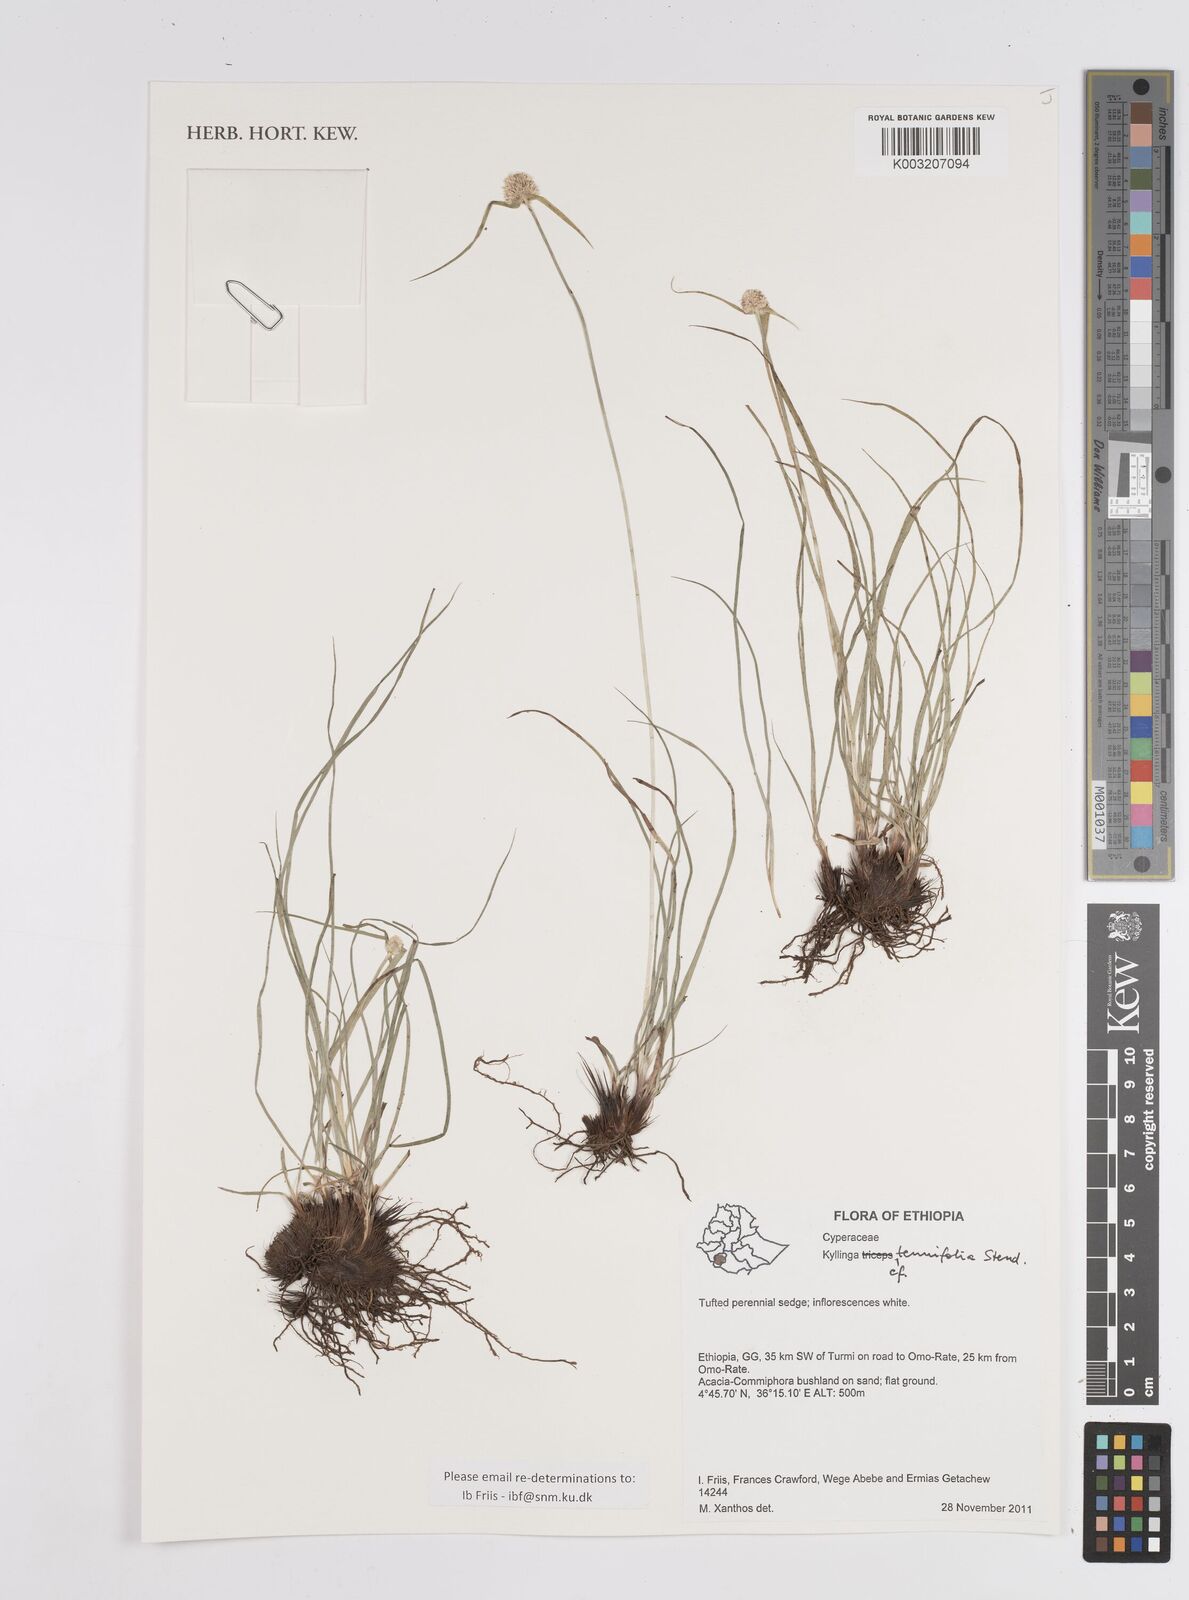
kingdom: Plantae
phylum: Tracheophyta
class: Liliopsida
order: Poales
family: Cyperaceae
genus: Cyperus
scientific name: Cyperus
